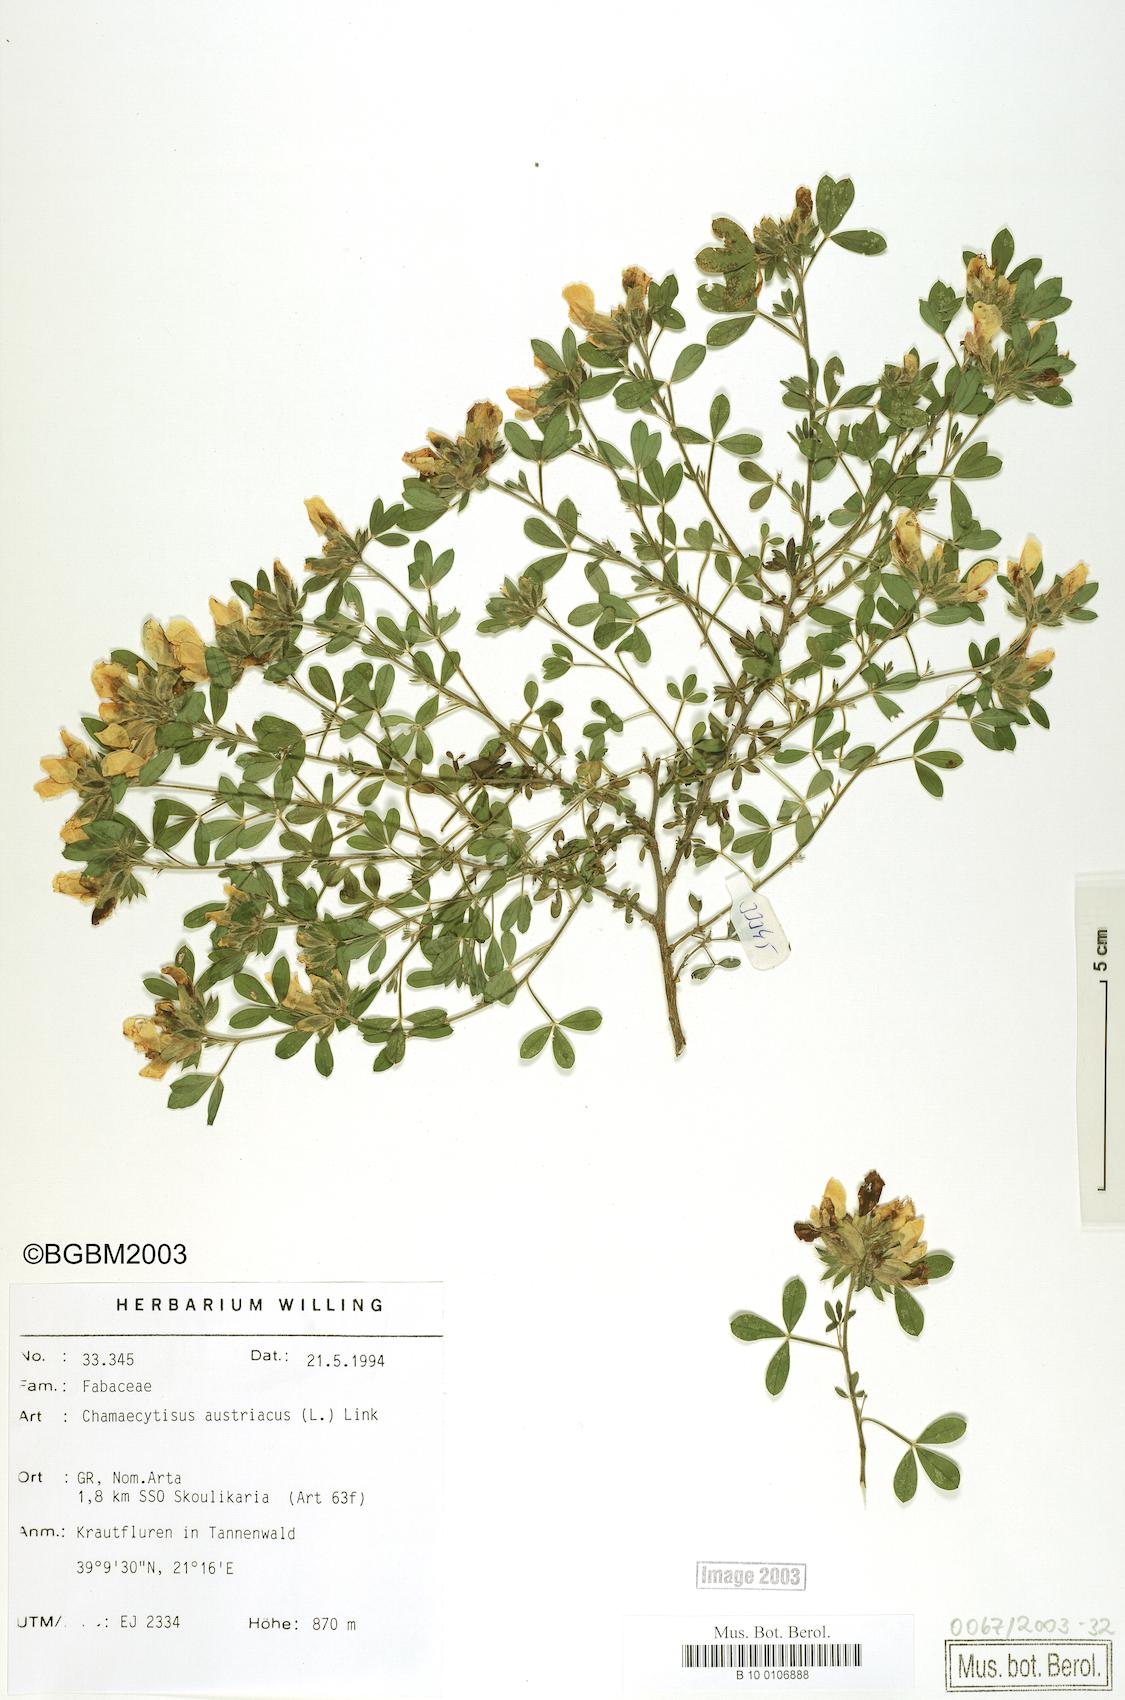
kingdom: Plantae
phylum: Tracheophyta
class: Magnoliopsida
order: Fabales
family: Fabaceae
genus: Chamaecytisus
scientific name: Chamaecytisus austriacus
